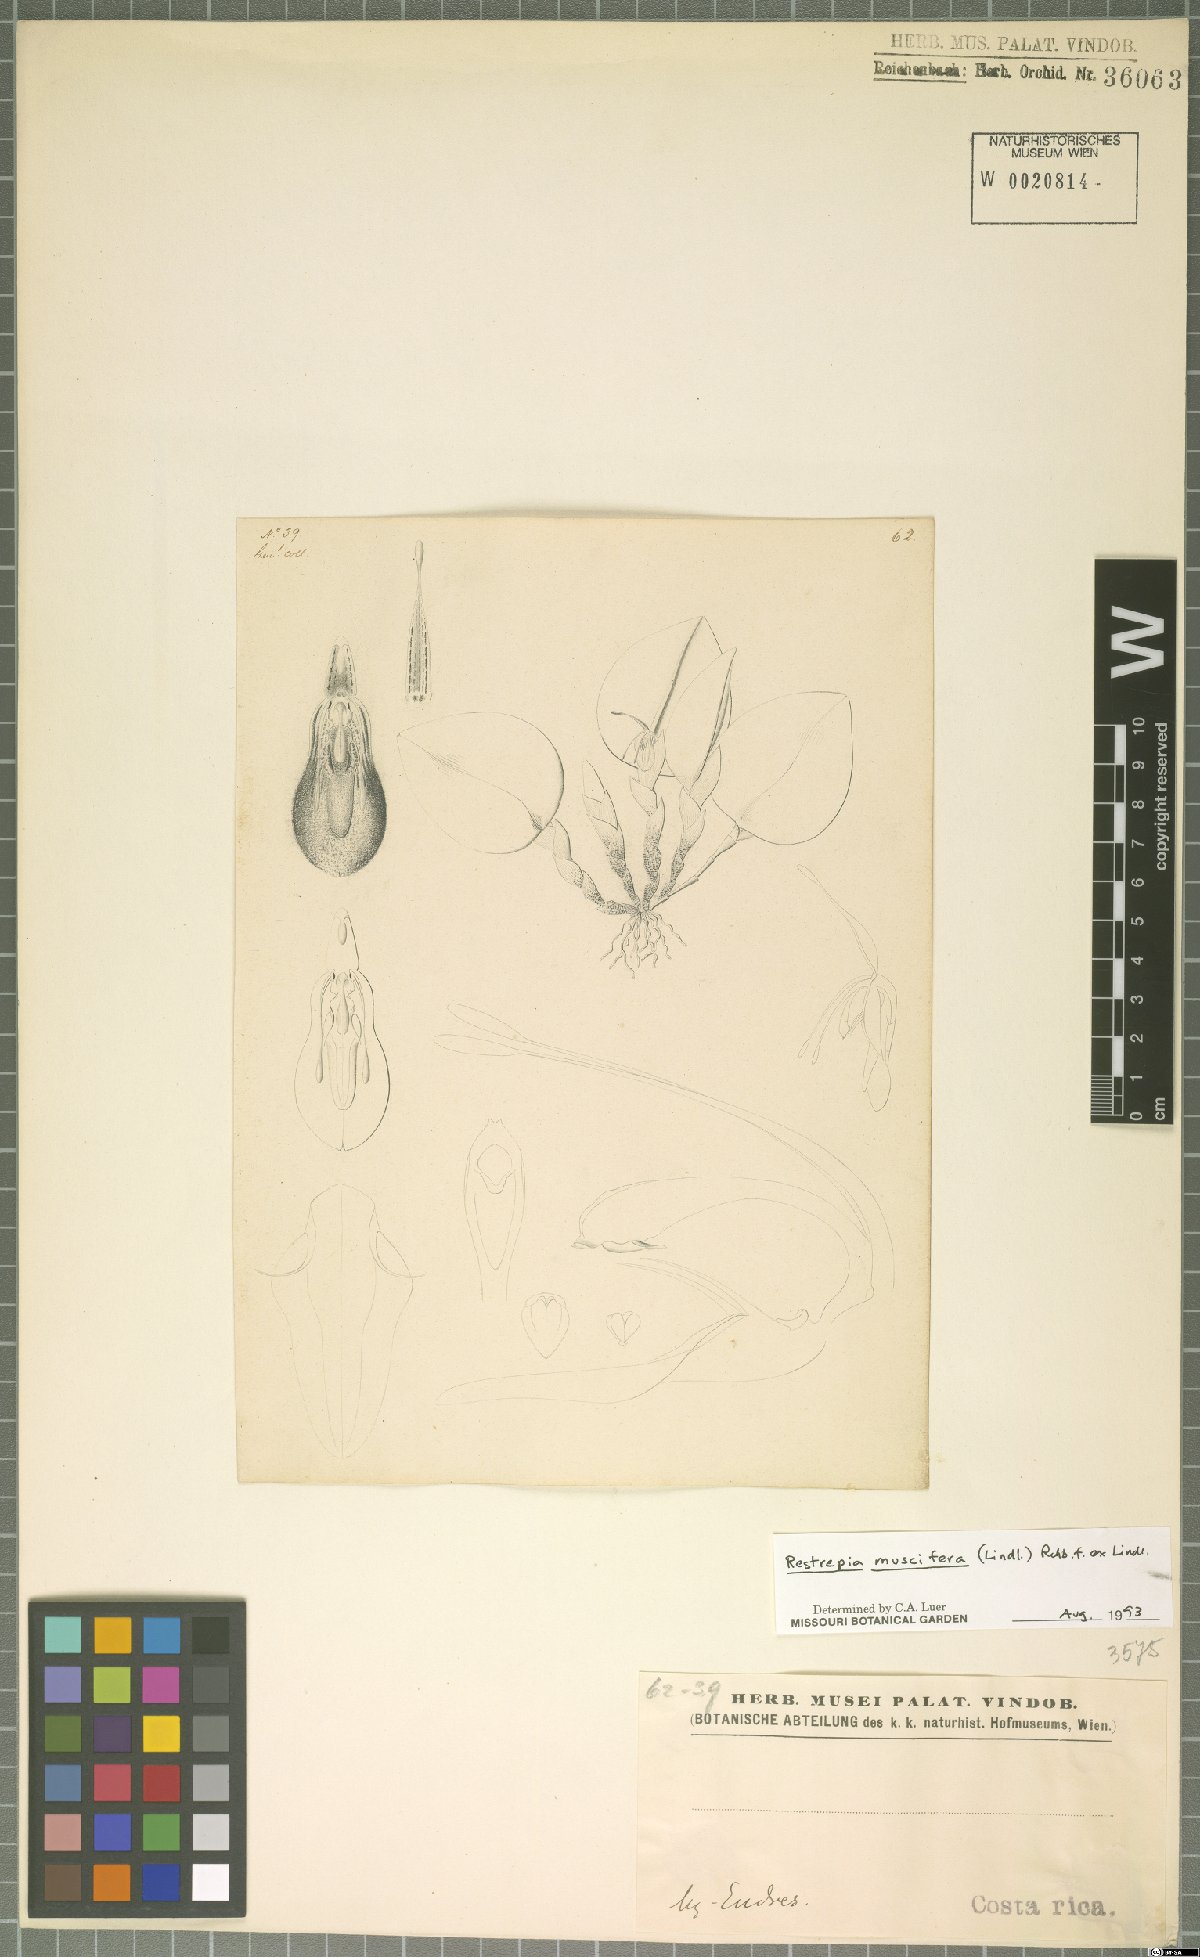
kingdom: Plantae
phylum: Tracheophyta
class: Liliopsida
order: Asparagales
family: Orchidaceae
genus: Restrepia
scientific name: Restrepia muscifera
